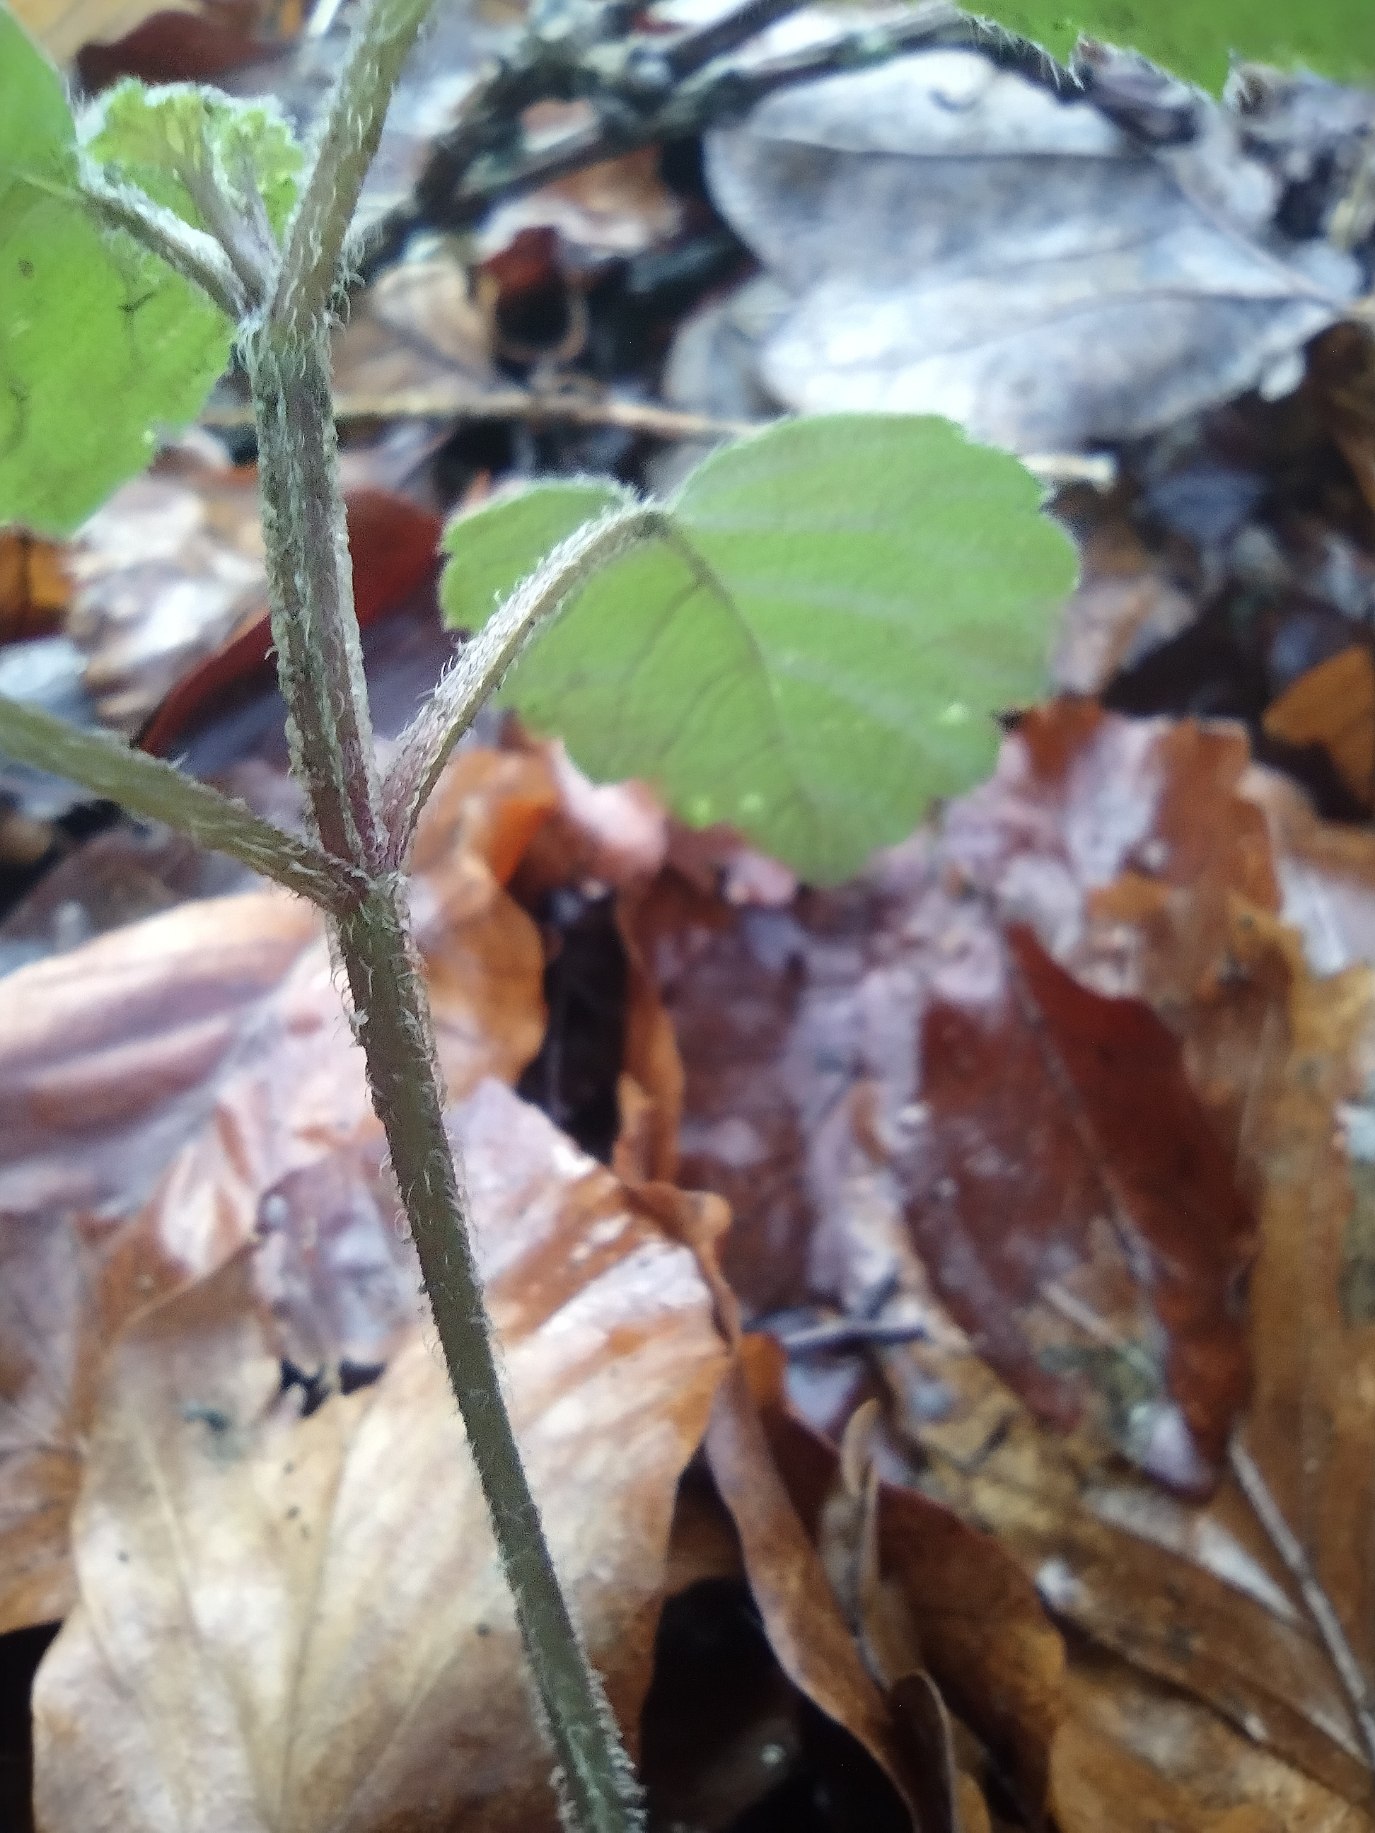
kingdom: Plantae
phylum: Tracheophyta
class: Magnoliopsida
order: Lamiales
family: Lamiaceae
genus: Lamium
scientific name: Lamium galeobdolon
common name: Guldnælde
